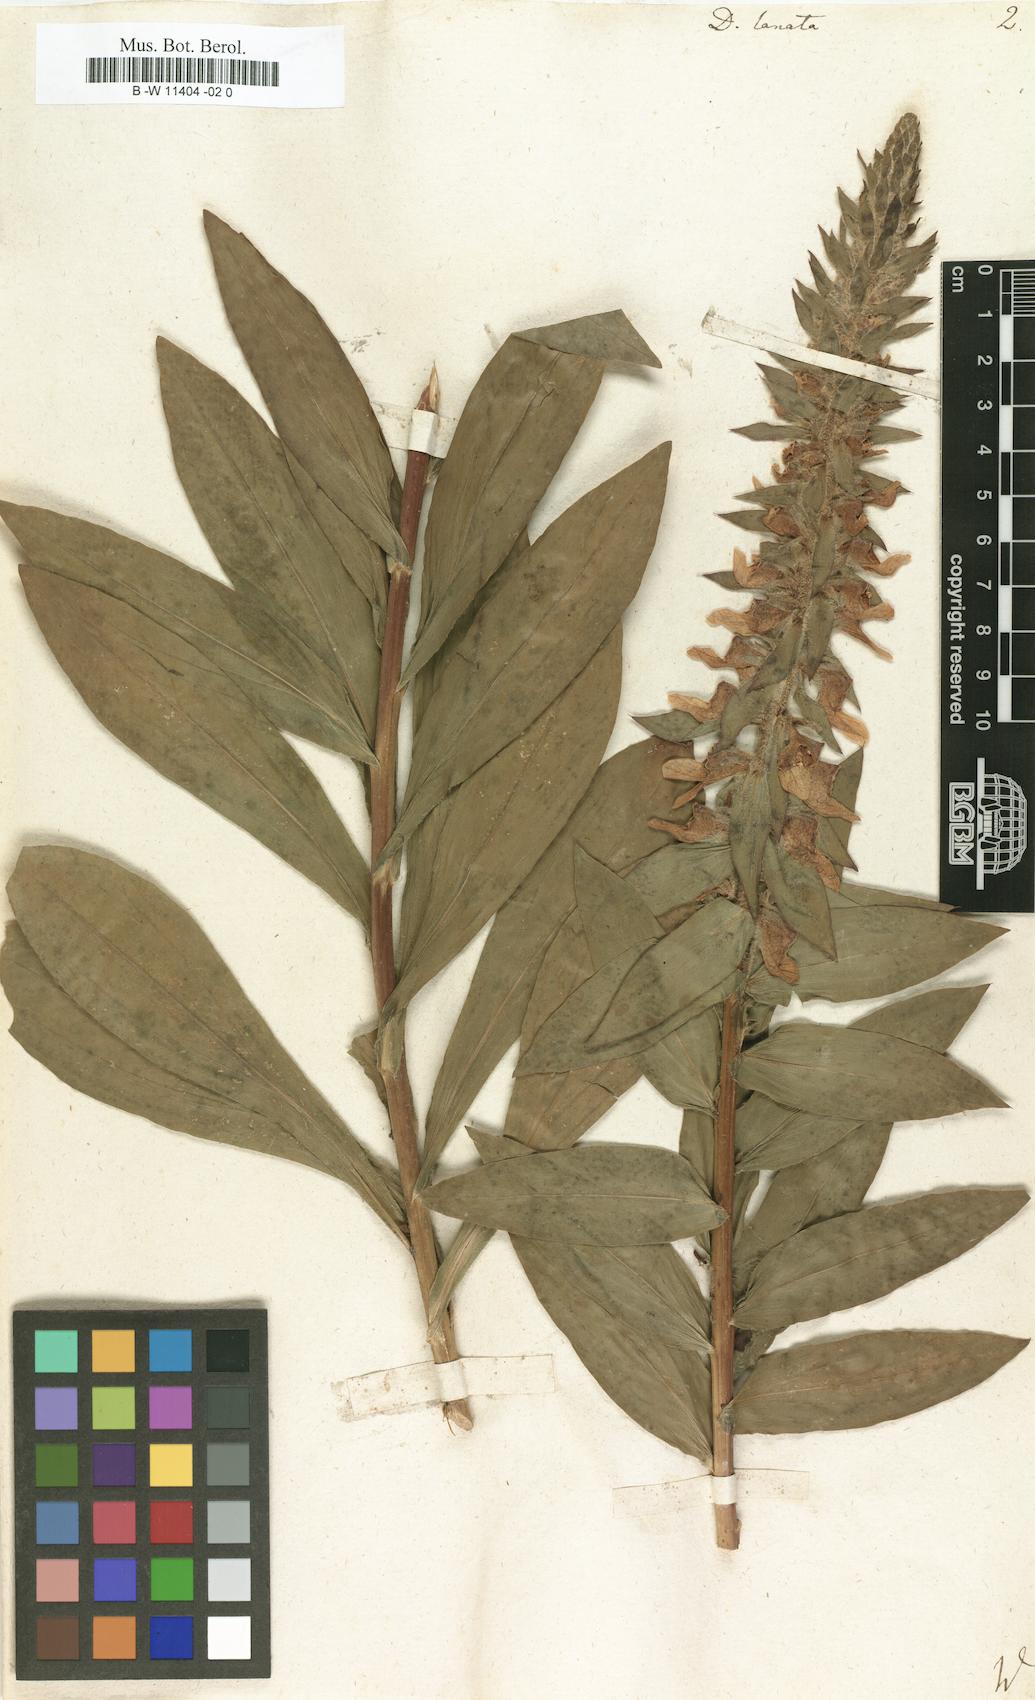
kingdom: Plantae
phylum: Tracheophyta
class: Magnoliopsida
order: Lamiales
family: Plantaginaceae
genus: Digitalis
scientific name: Digitalis lanata
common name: Grecian foxglove
